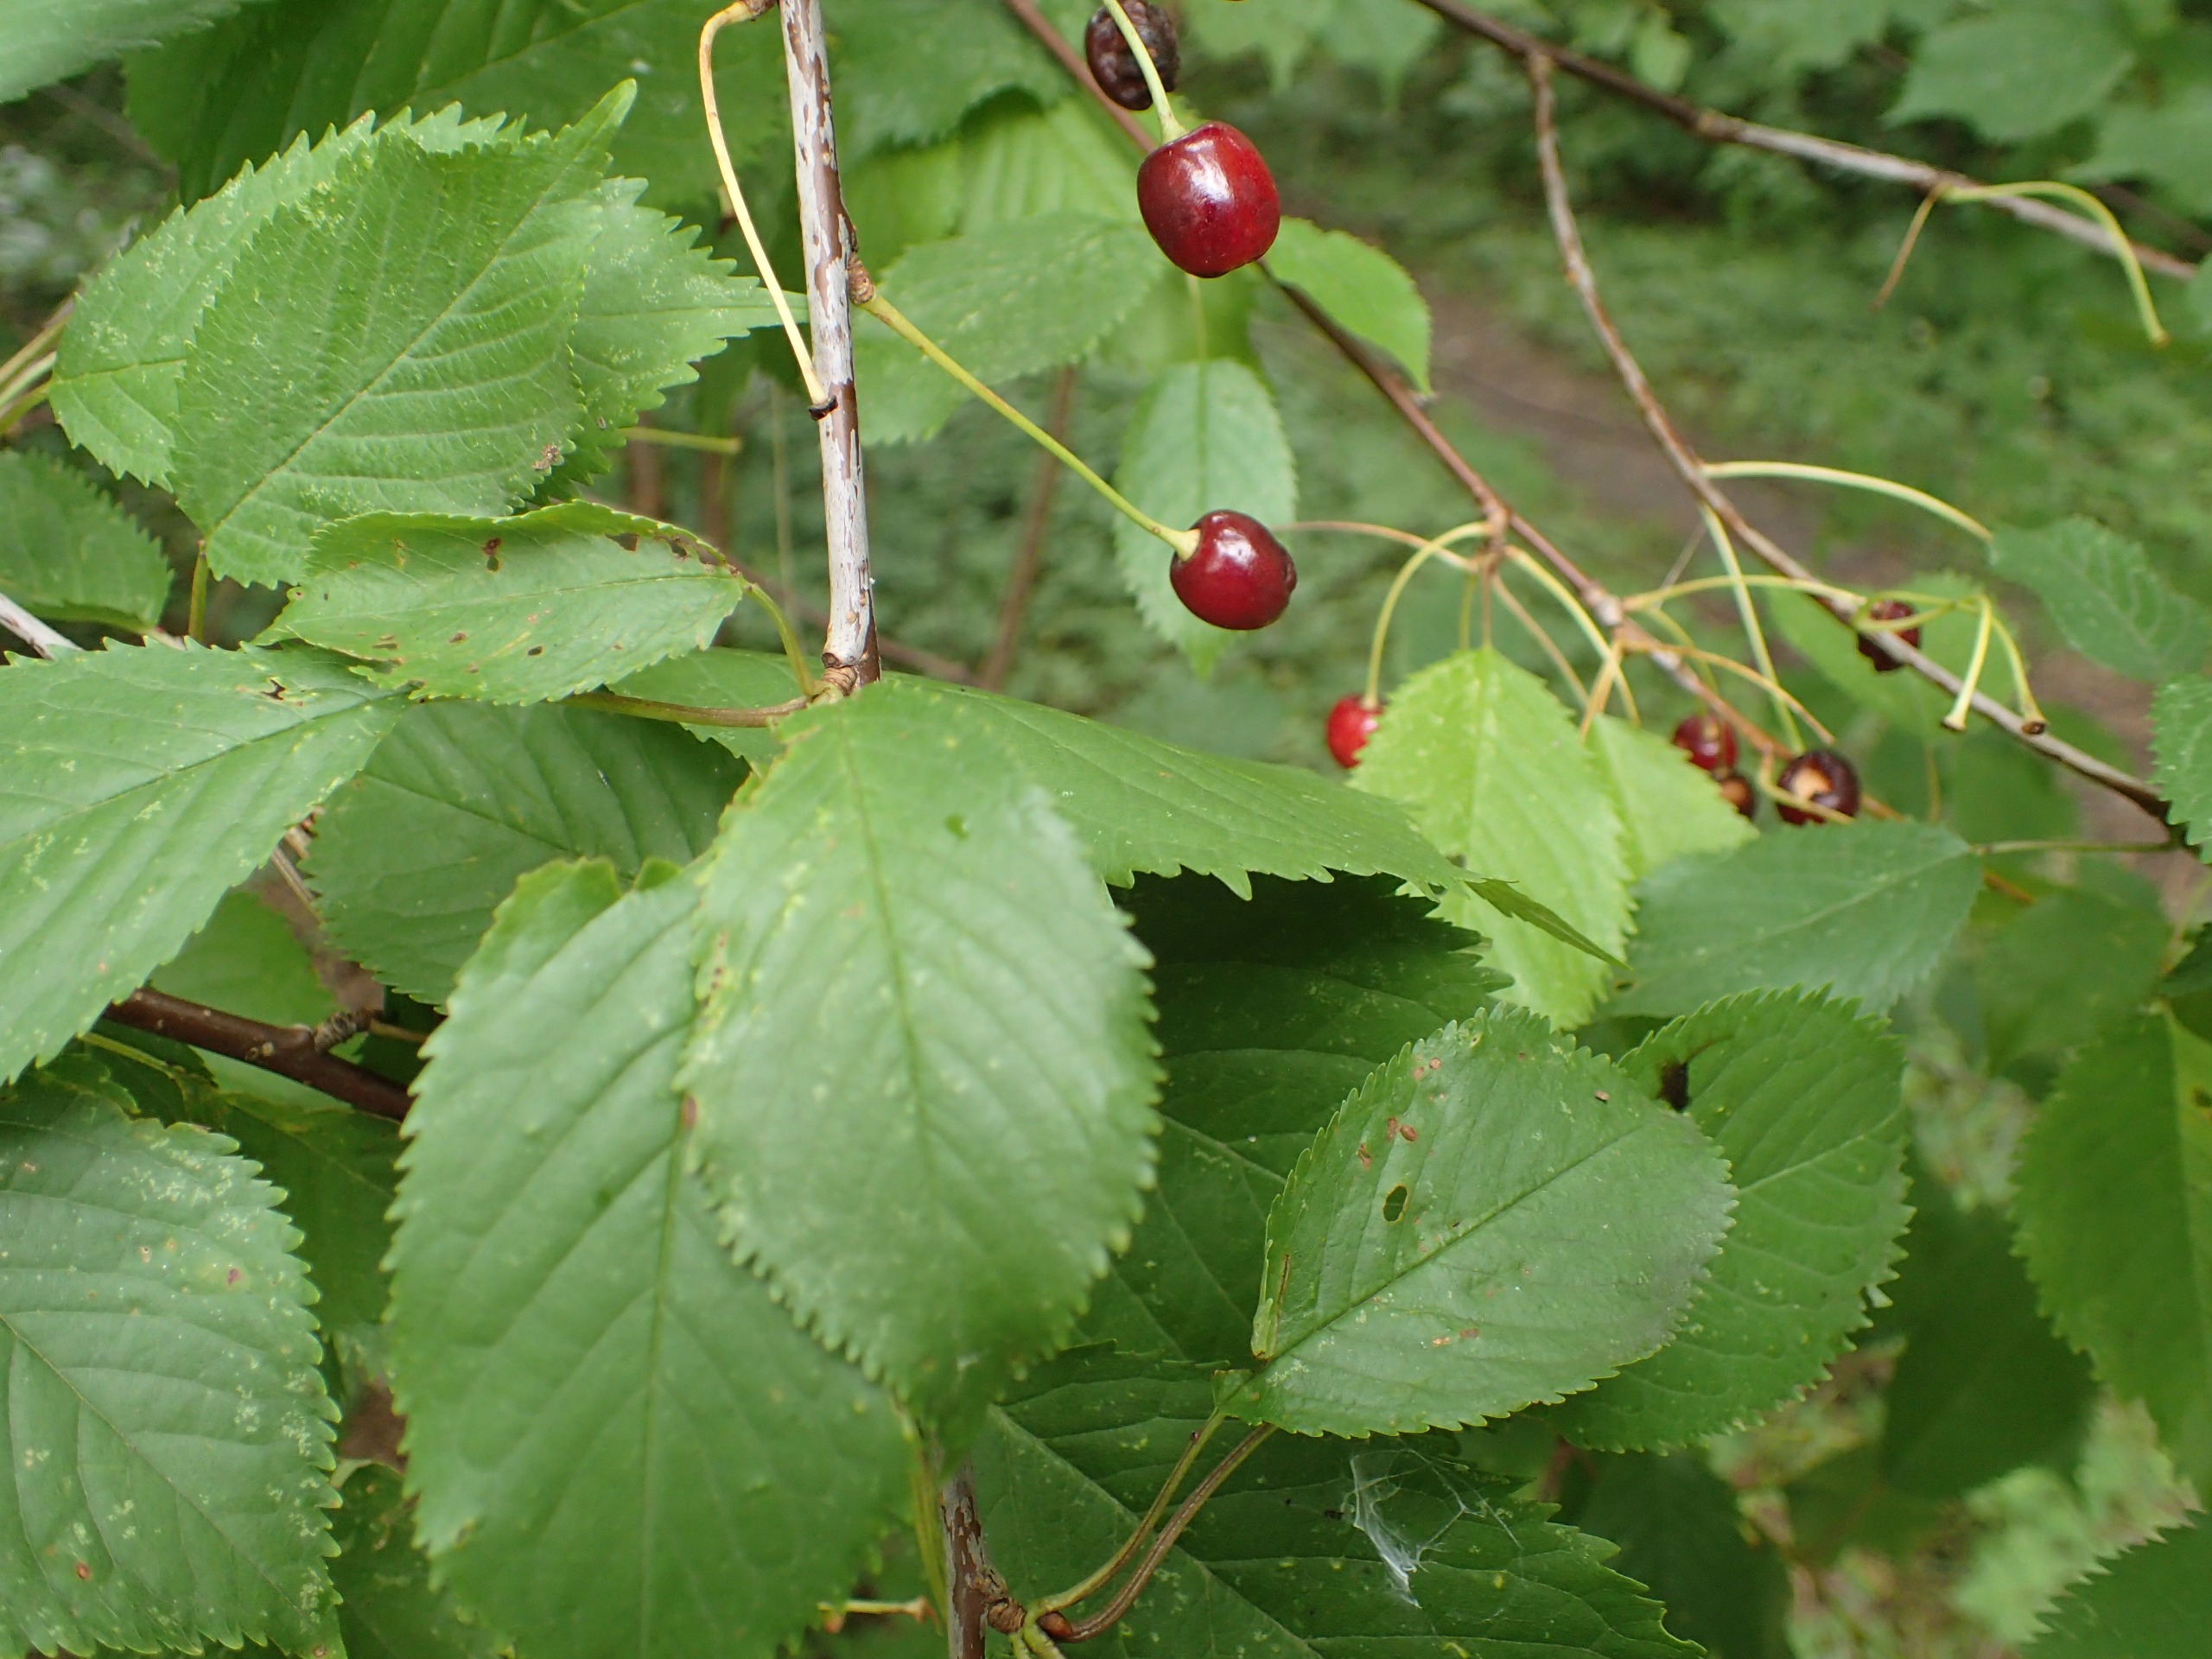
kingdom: Plantae
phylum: Tracheophyta
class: Magnoliopsida
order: Rosales
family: Rosaceae
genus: Prunus
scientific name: Prunus avium
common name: Fugle-kirsebær
